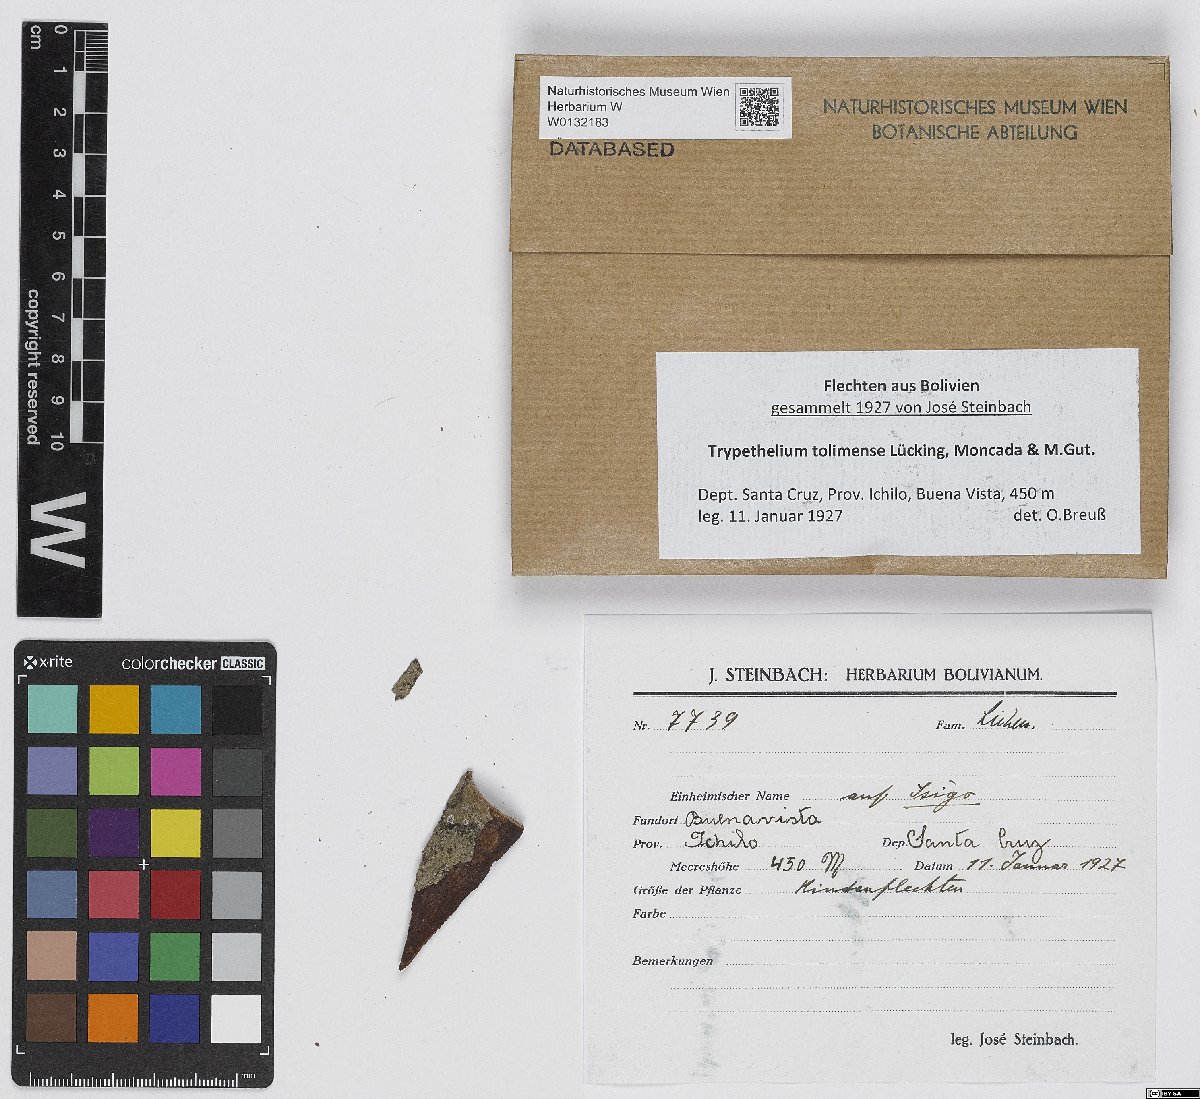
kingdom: Fungi
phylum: Ascomycota
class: Dothideomycetes
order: Trypetheliales
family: Trypetheliaceae
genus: Trypethelium
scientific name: Trypethelium tolimense
